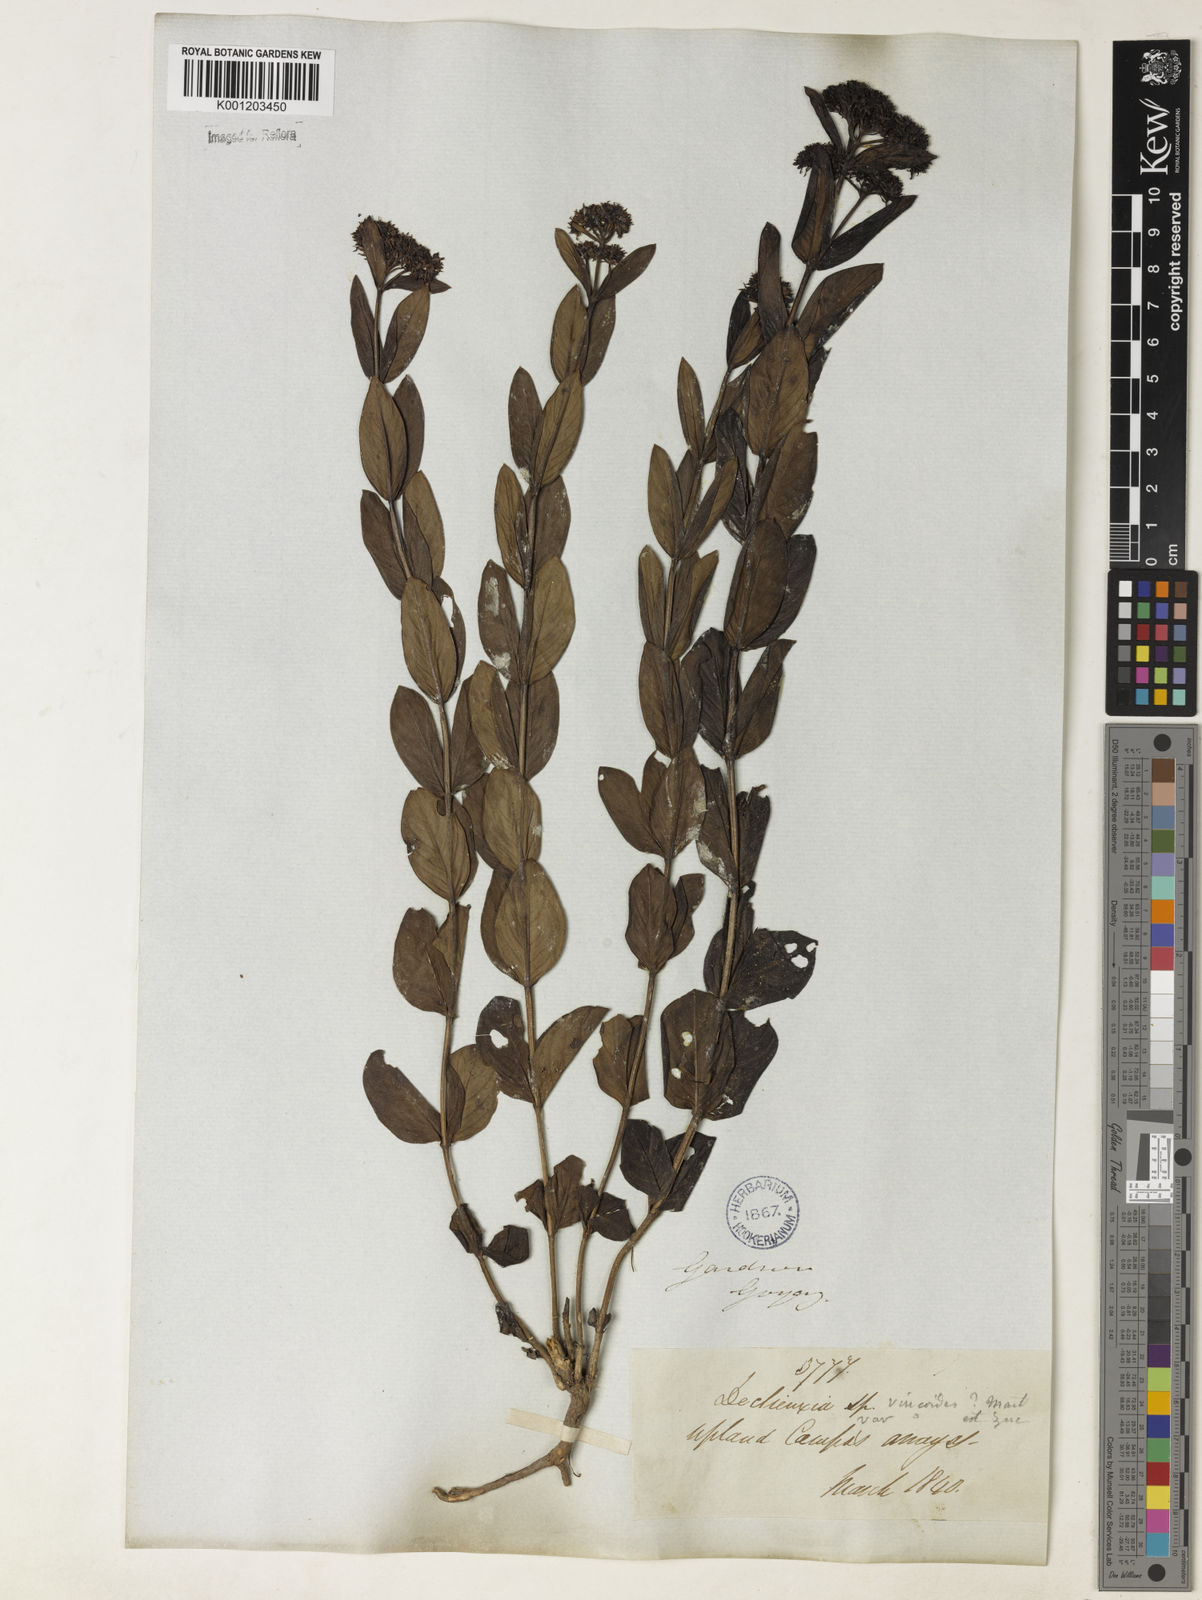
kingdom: Plantae
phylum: Tracheophyta
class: Magnoliopsida
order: Gentianales
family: Rubiaceae
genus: Declieuxia
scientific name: Declieuxia fruticosa
